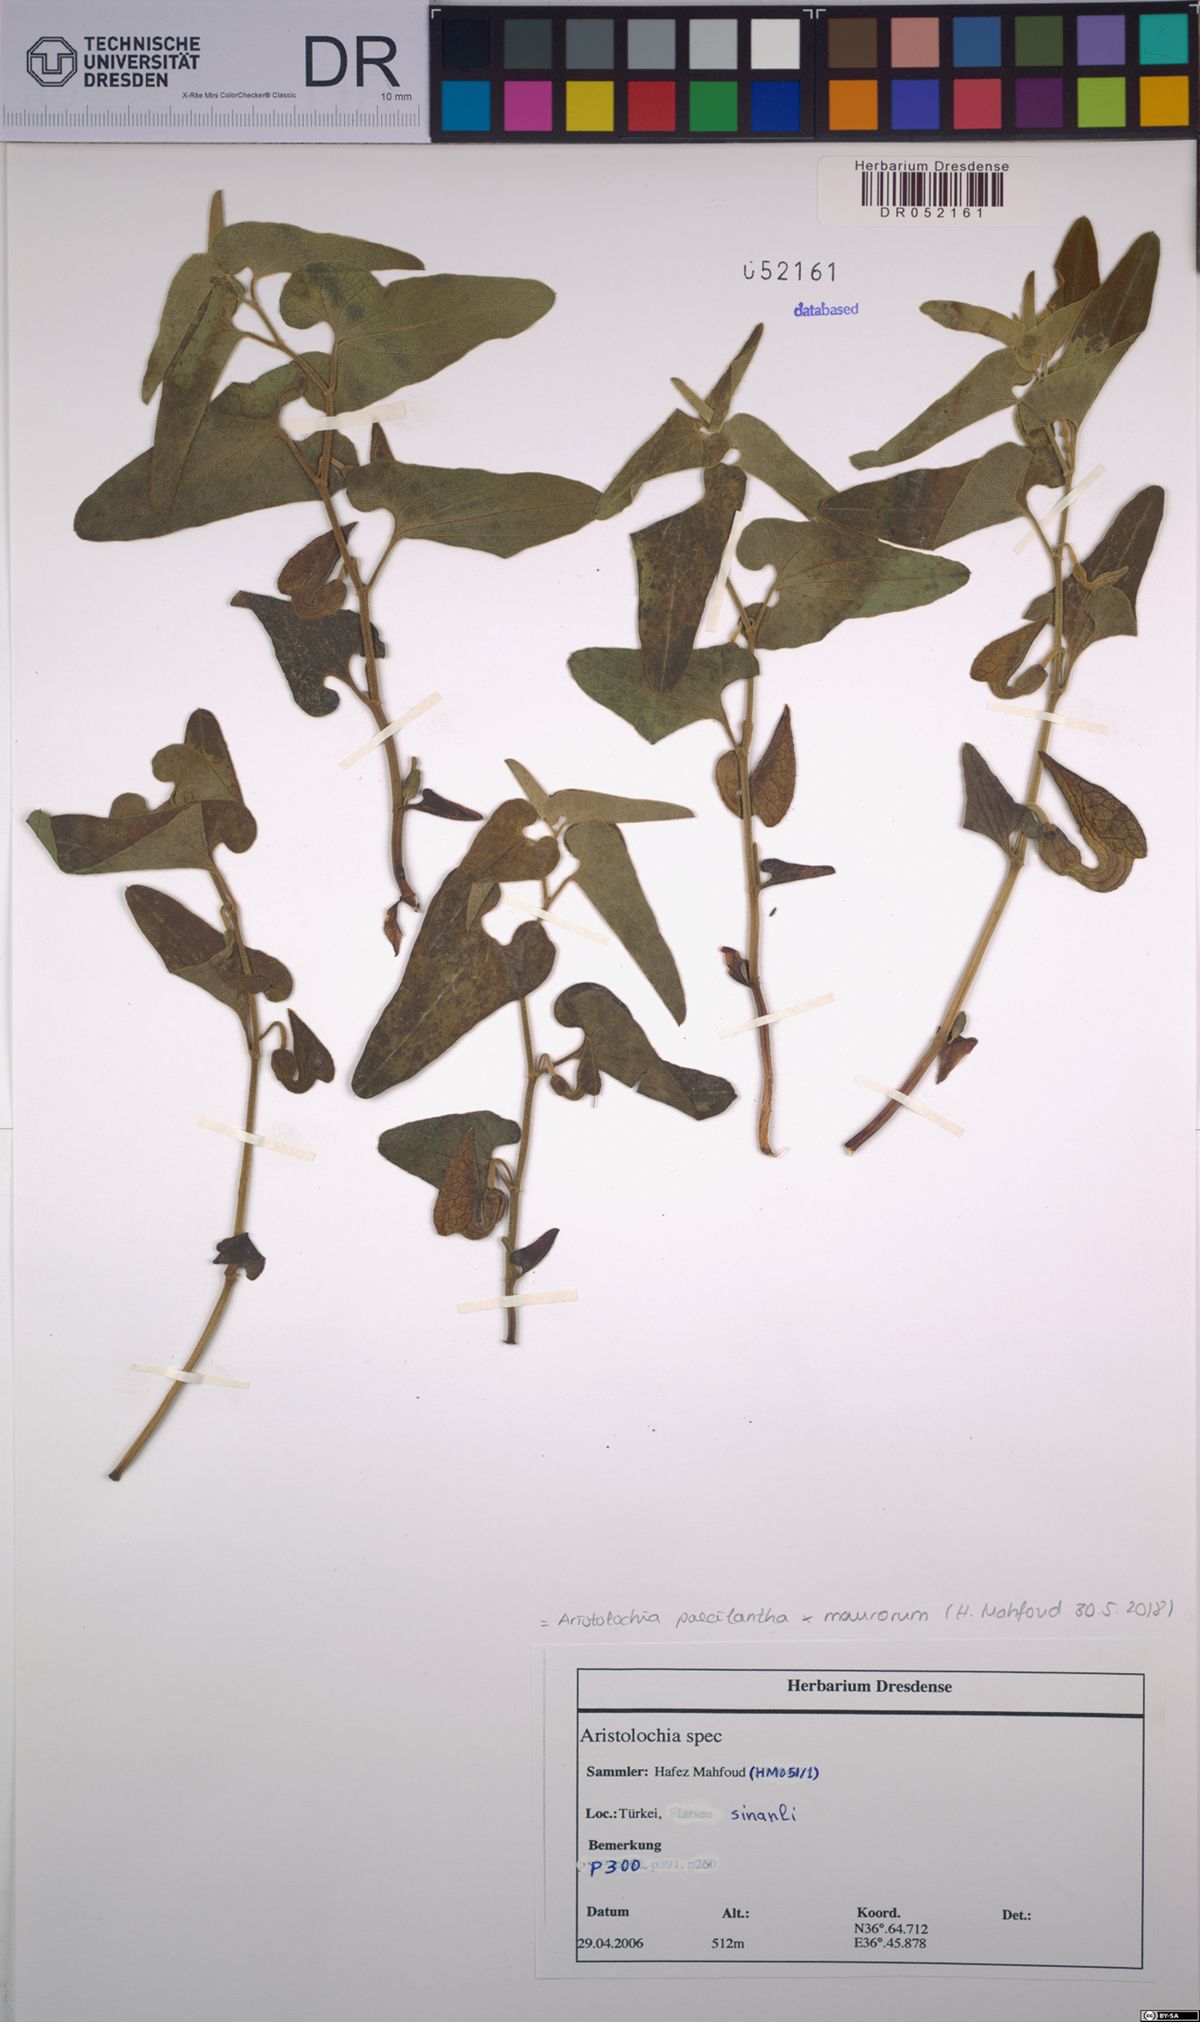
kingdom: Plantae
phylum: Tracheophyta
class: Magnoliopsida
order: Piperales
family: Aristolochiaceae
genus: Aristolochia
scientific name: Aristolochia paecilantha
